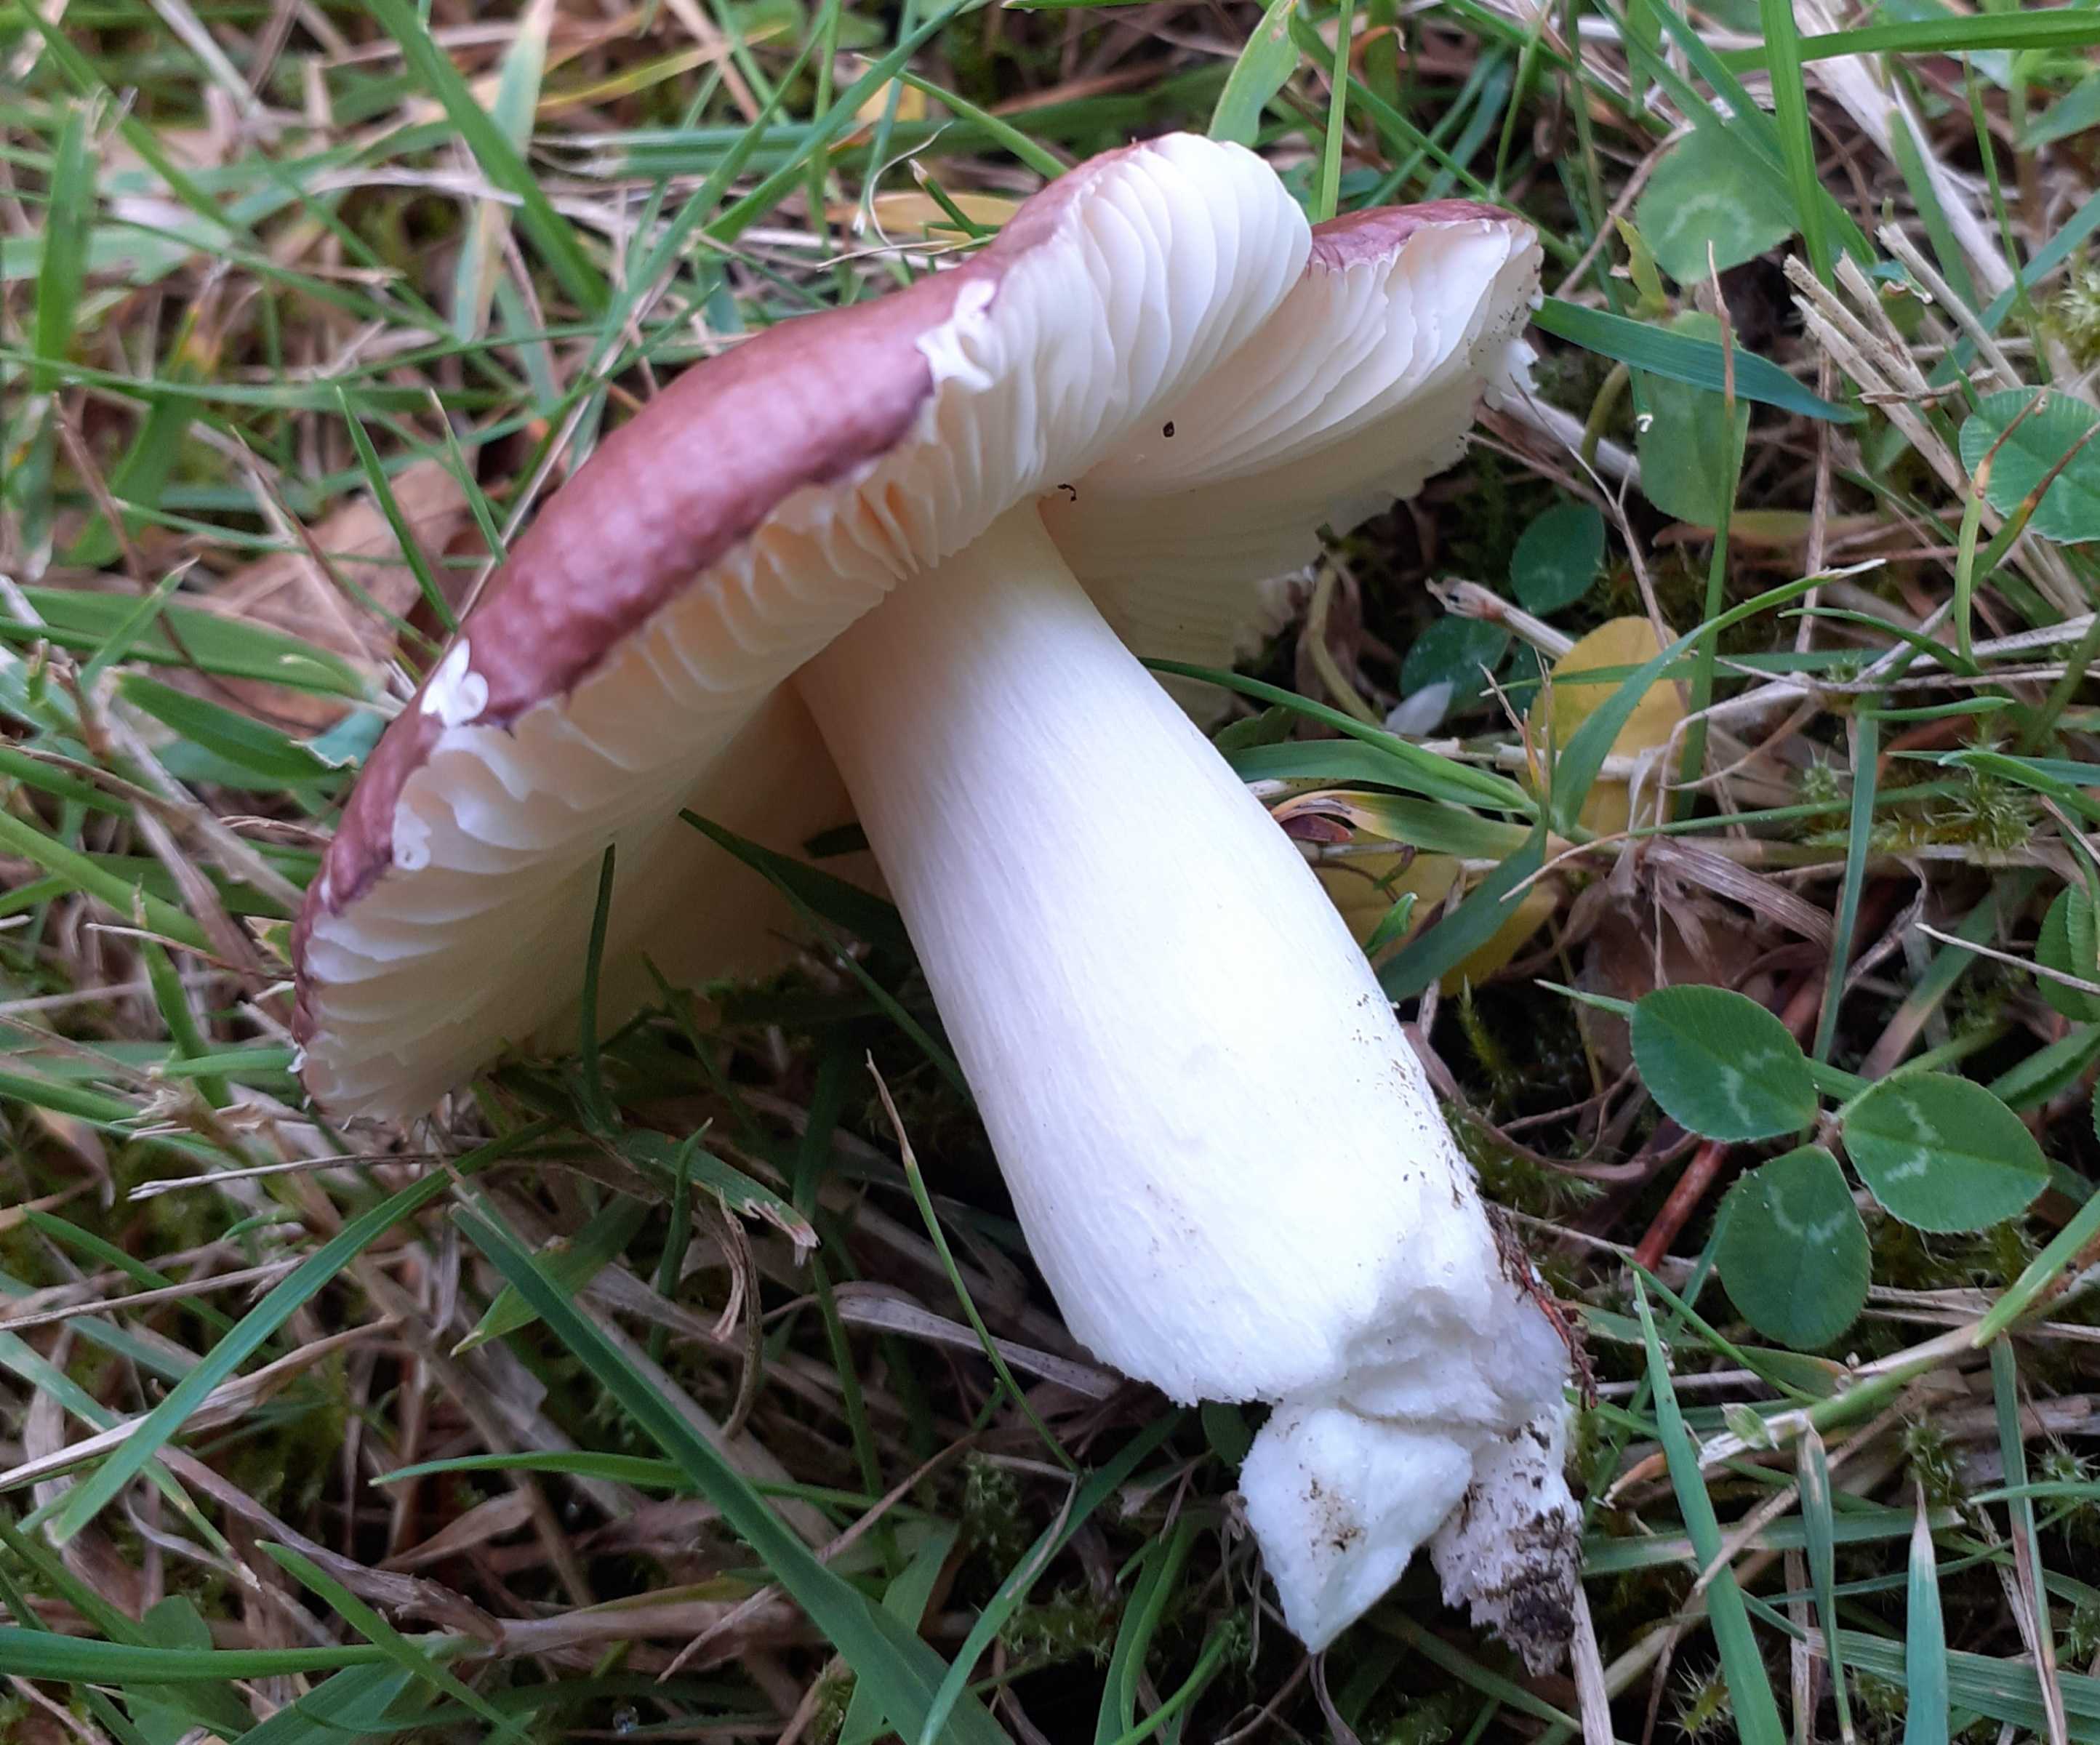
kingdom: Fungi
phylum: Basidiomycota
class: Agaricomycetes
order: Russulales
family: Russulaceae
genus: Russula
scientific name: Russula cessans
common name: fyrre-skørhat
